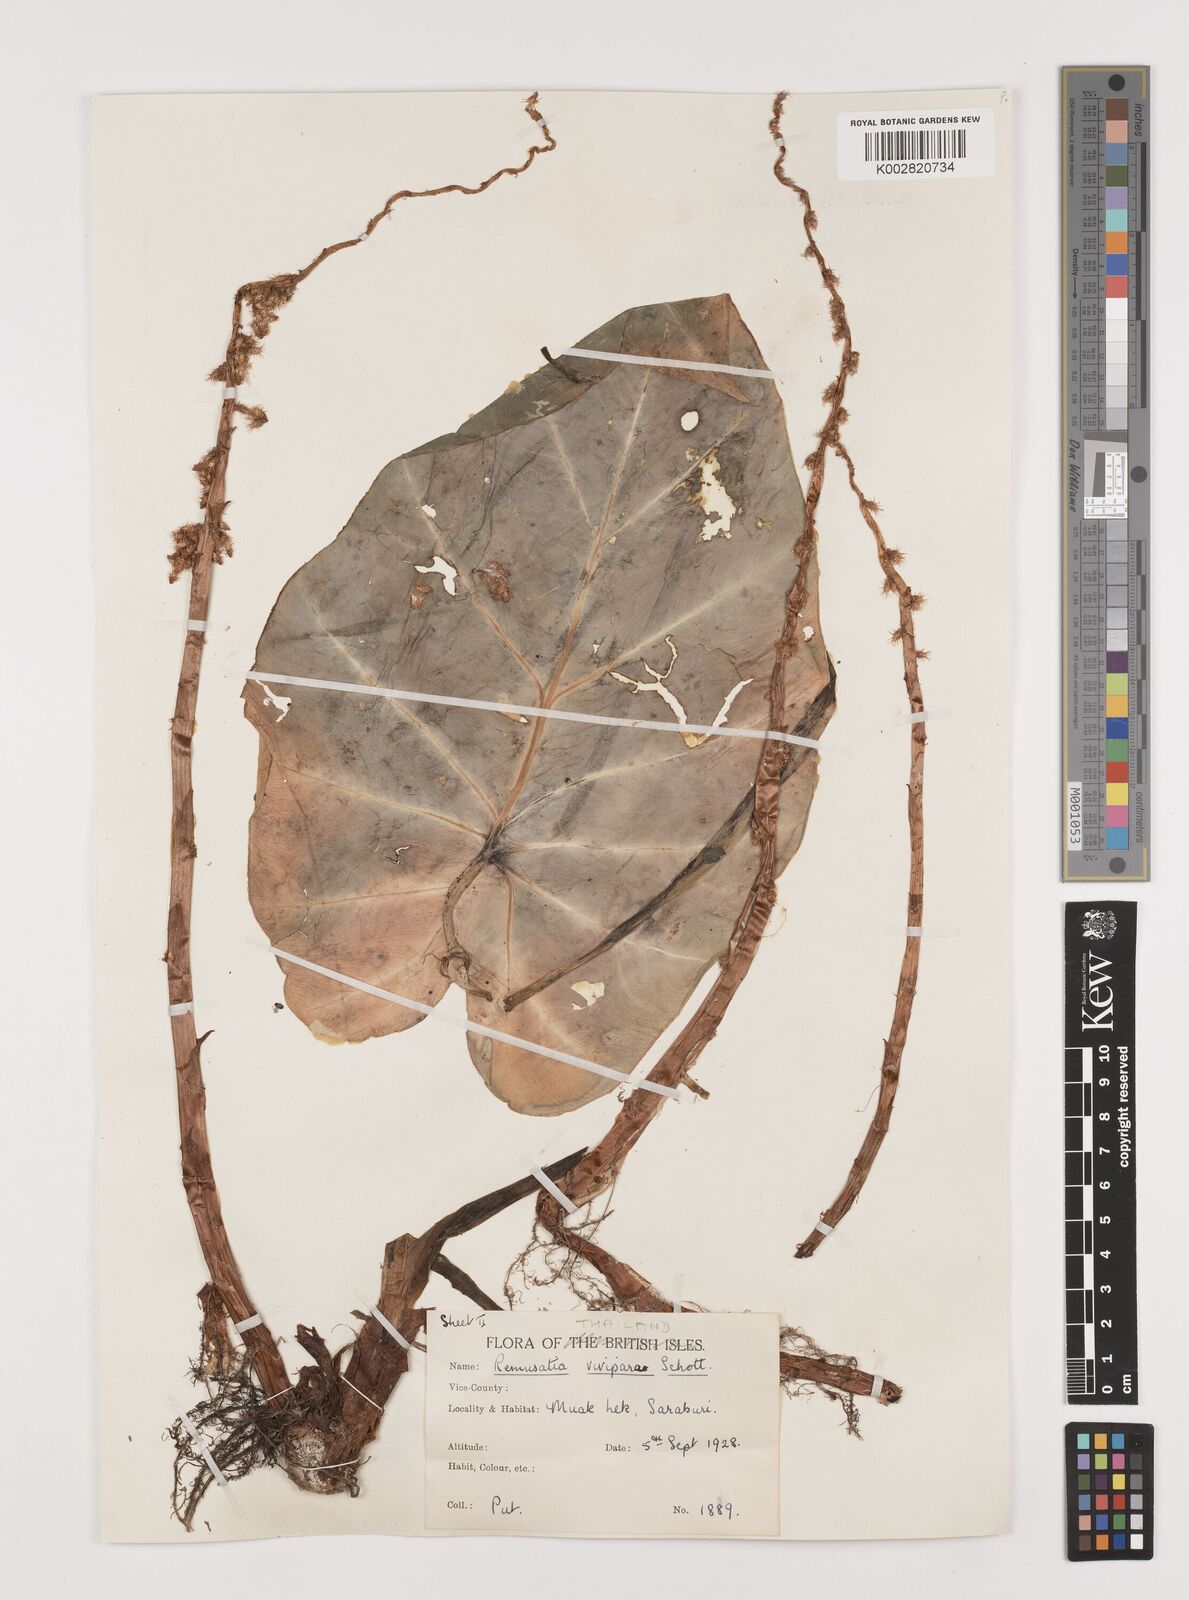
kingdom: Plantae
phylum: Tracheophyta
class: Liliopsida
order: Alismatales
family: Araceae
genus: Remusatia
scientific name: Remusatia vivipara
